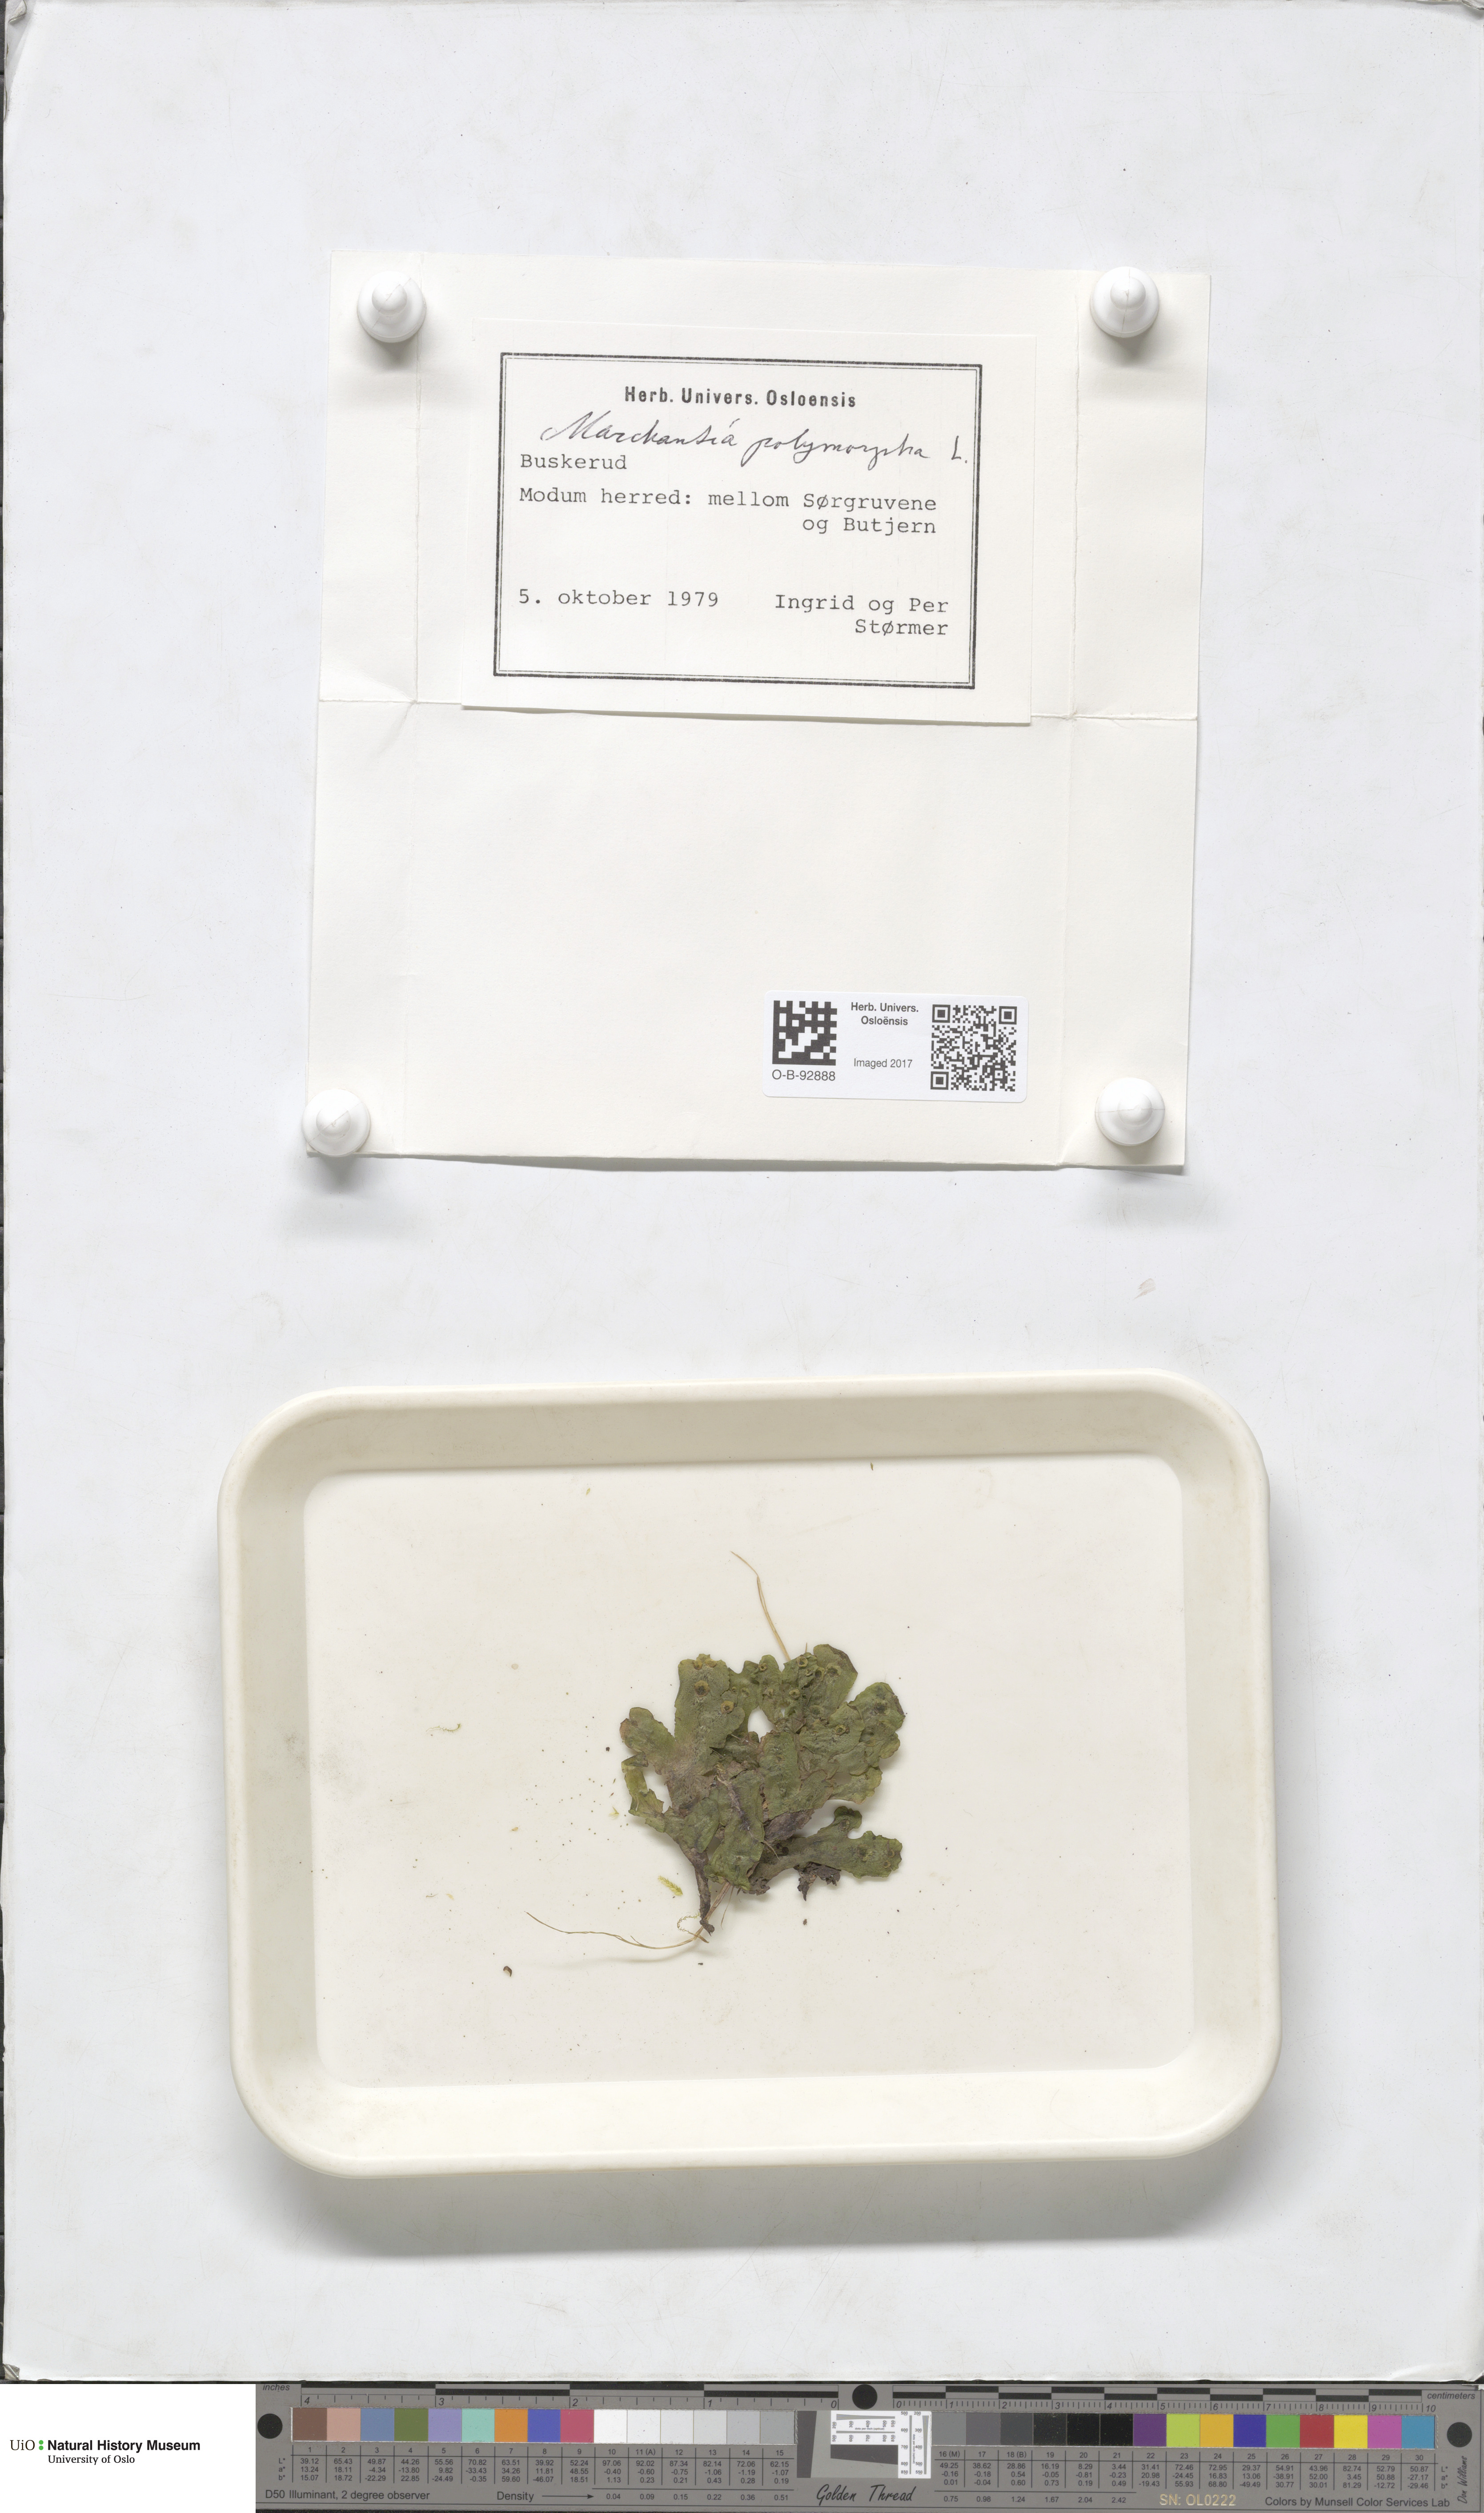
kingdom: Plantae
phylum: Marchantiophyta
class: Marchantiopsida
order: Marchantiales
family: Marchantiaceae
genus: Marchantia
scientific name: Marchantia polymorpha
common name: Common liverwort
